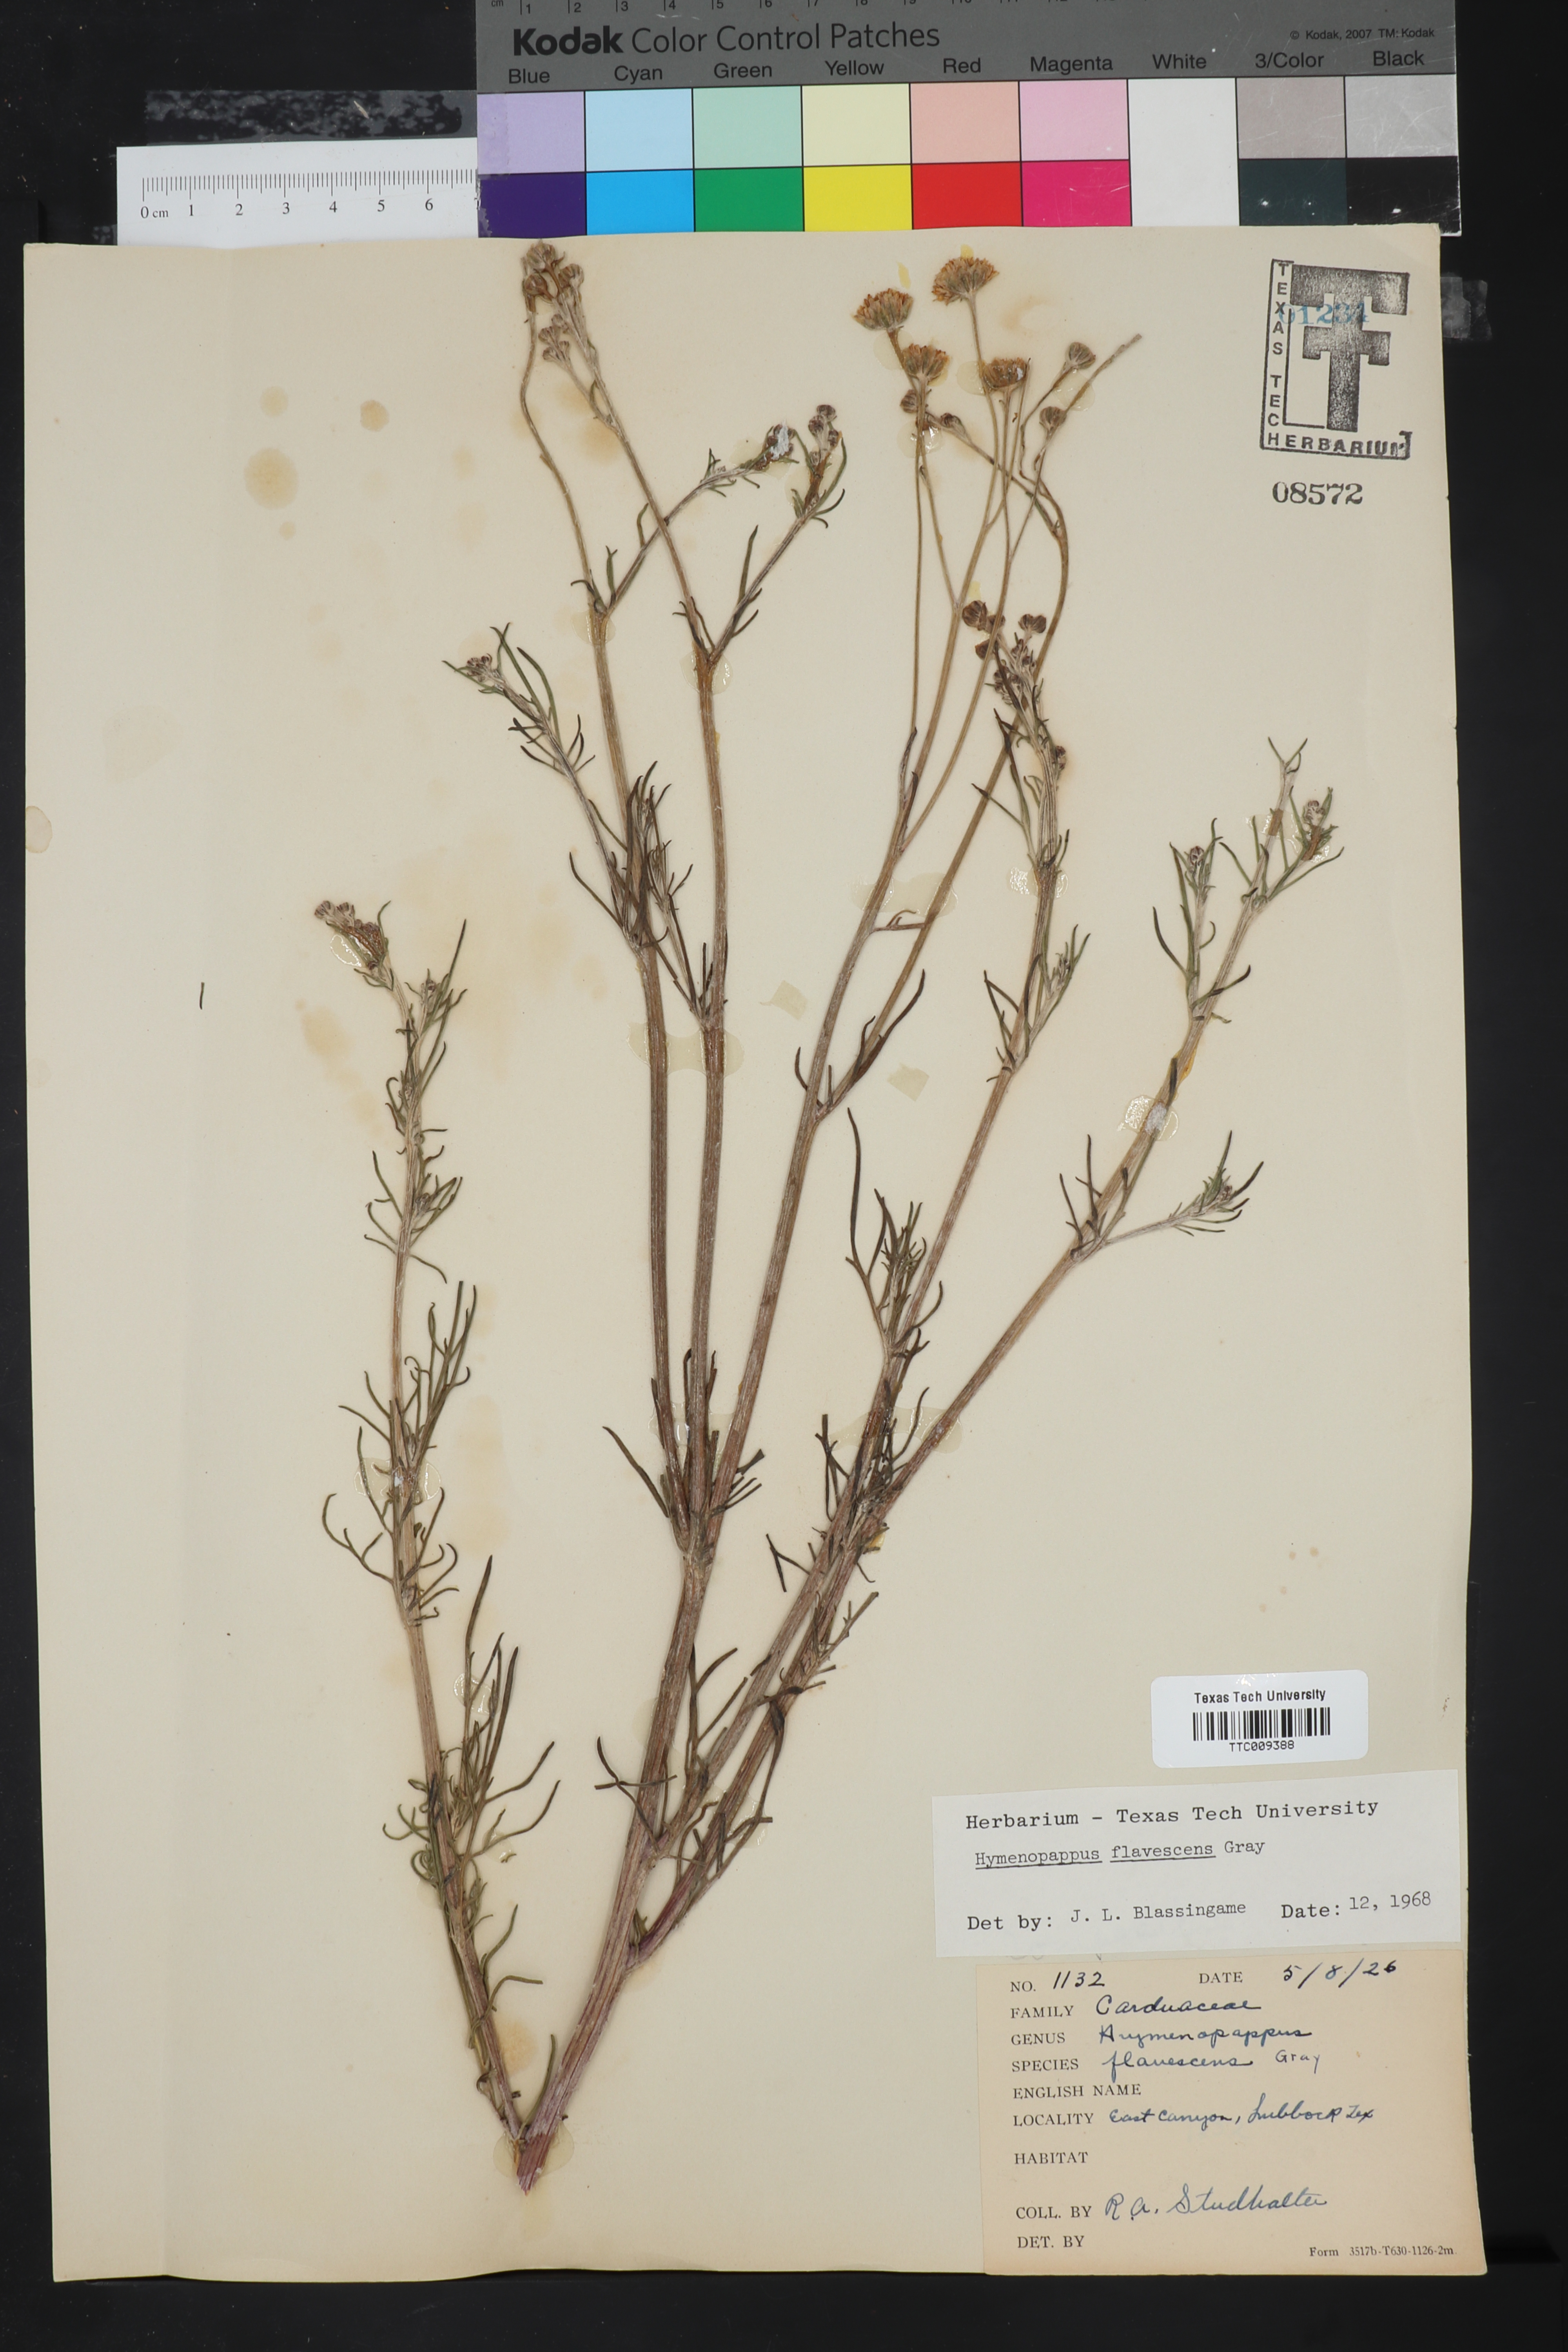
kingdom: Plantae
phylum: Tracheophyta
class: Magnoliopsida
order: Asterales
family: Asteraceae
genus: Hymenopappus
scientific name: Hymenopappus flavescens
